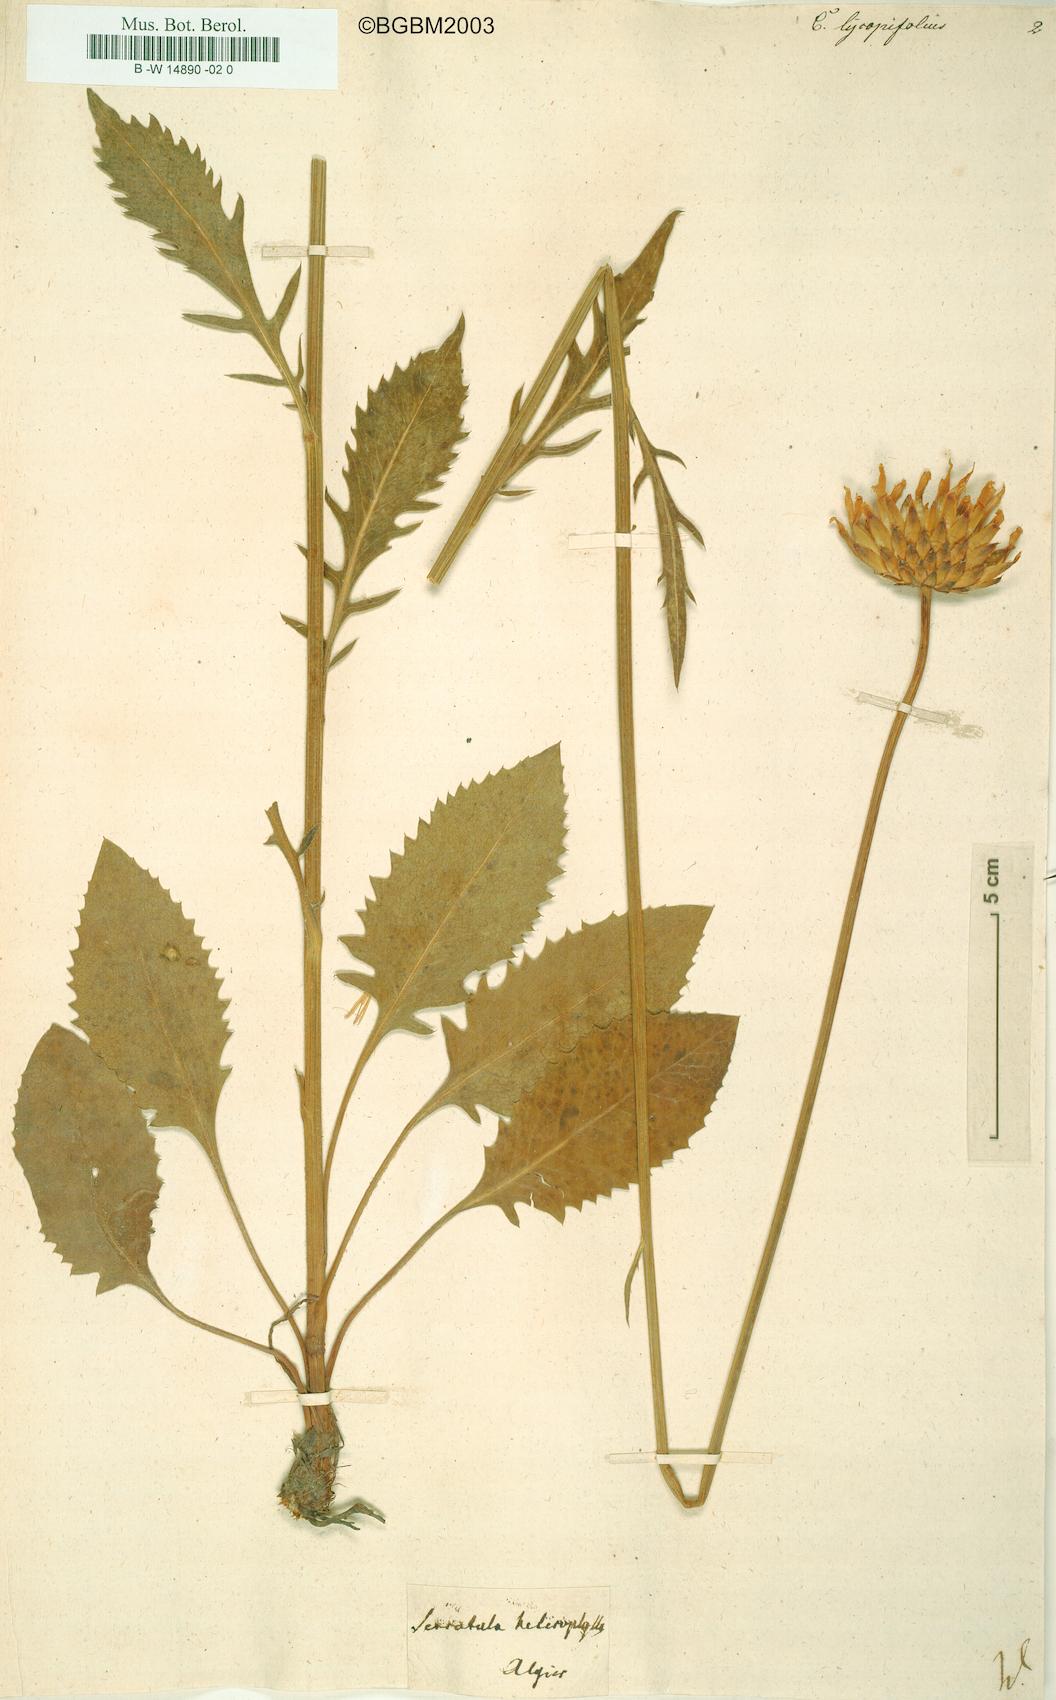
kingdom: Plantae
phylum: Tracheophyta
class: Magnoliopsida
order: Asterales
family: Asteraceae
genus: Klasea
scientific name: Klasea lycopifolia
